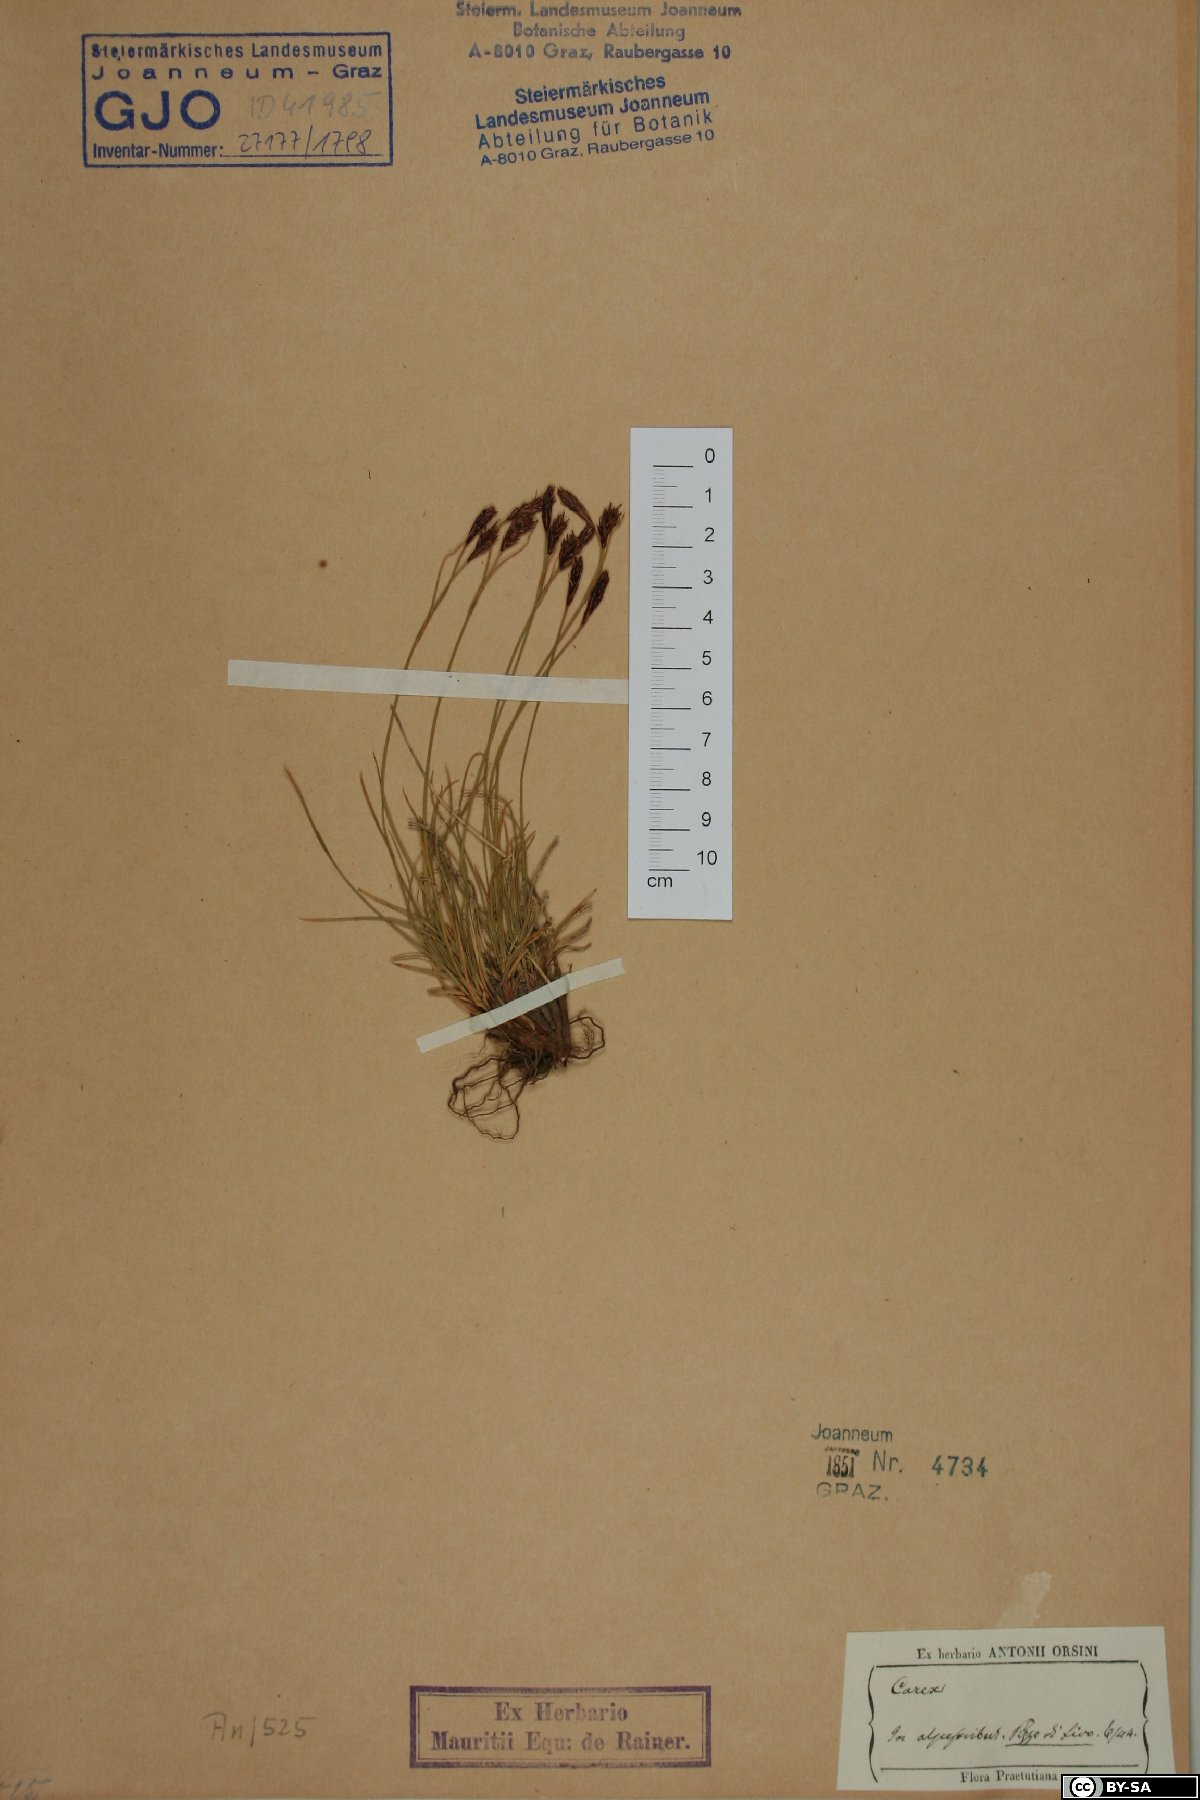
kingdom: Plantae
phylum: Tracheophyta
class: Liliopsida
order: Poales
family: Cyperaceae
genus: Carex
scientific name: Carex
